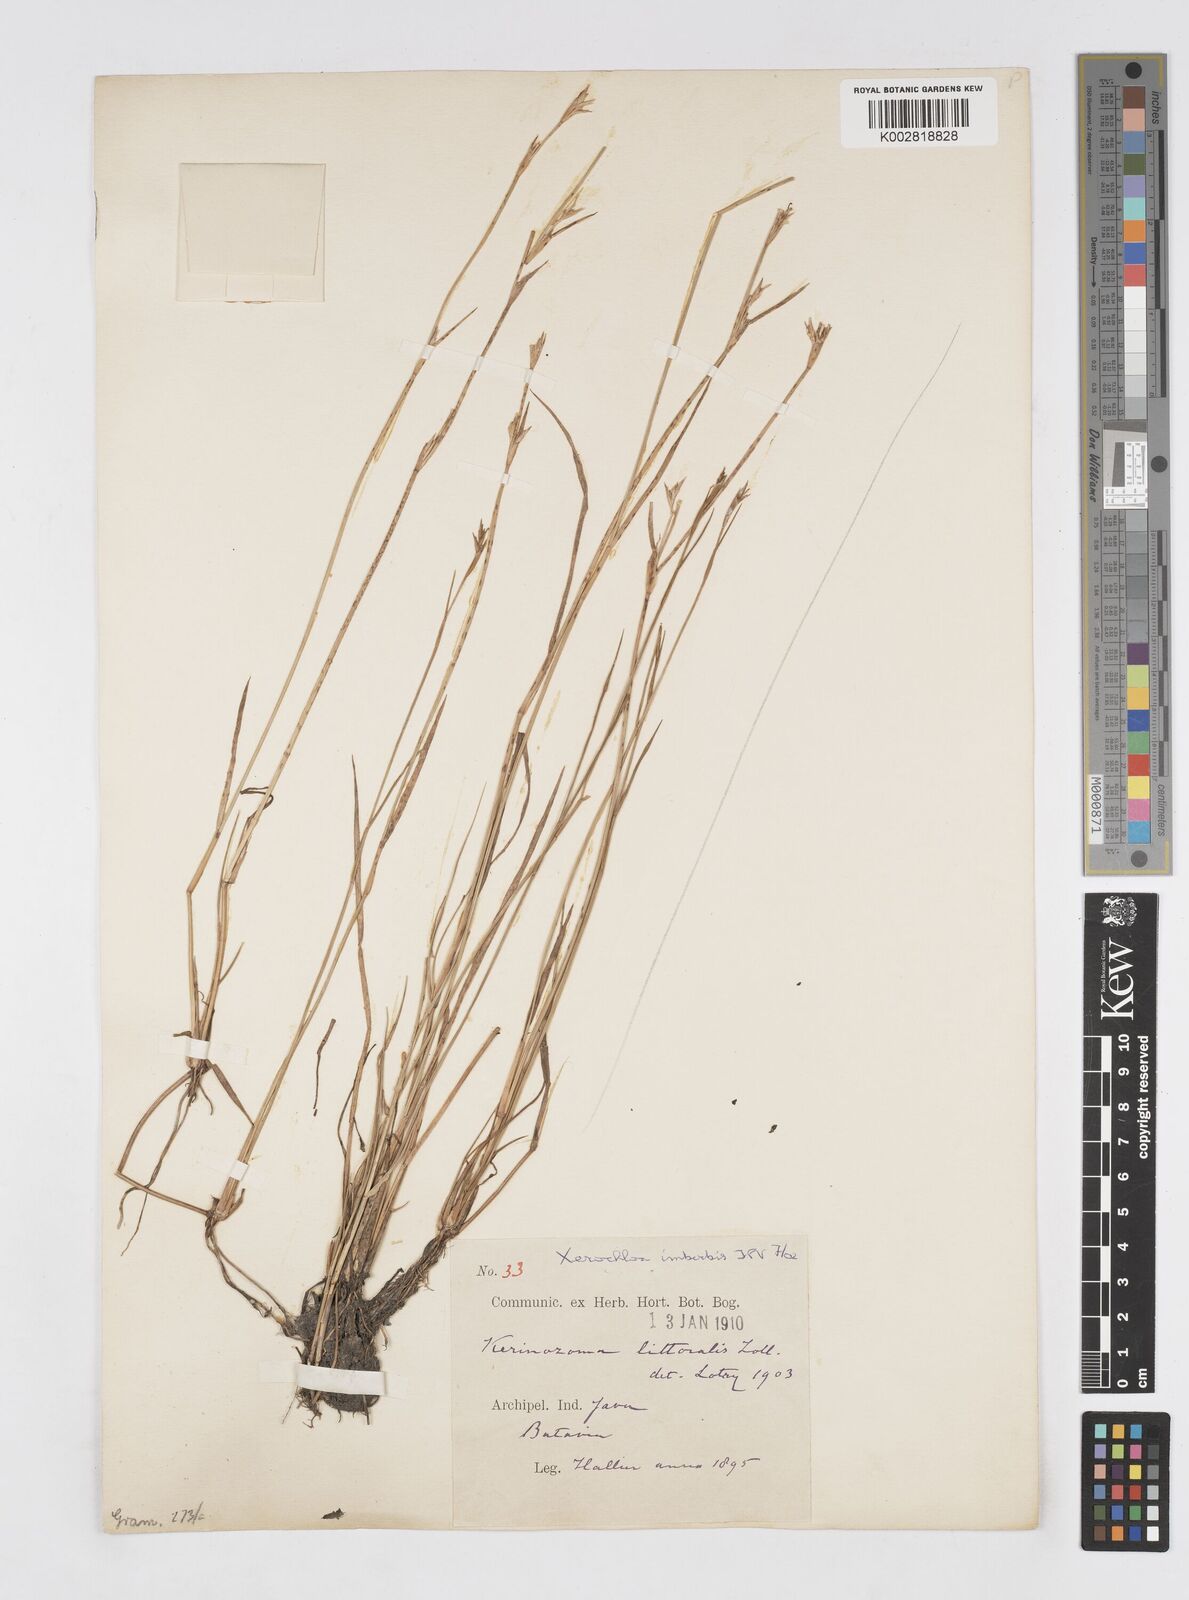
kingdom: Plantae
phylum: Tracheophyta
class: Liliopsida
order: Poales
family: Poaceae
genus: Xerochloa
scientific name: Xerochloa imberbis
